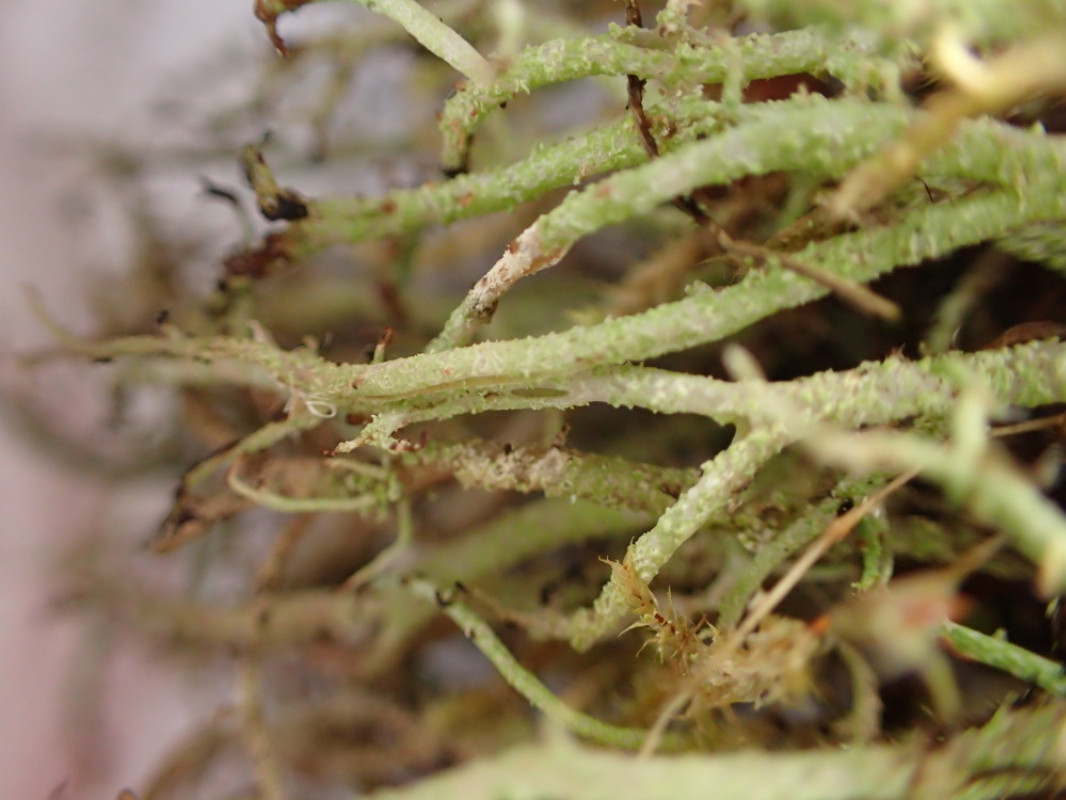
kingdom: Fungi
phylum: Ascomycota
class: Lecanoromycetes
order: Lecanorales
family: Cladoniaceae
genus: Cladonia
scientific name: Cladonia scabriuscula
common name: ru bægerlav
